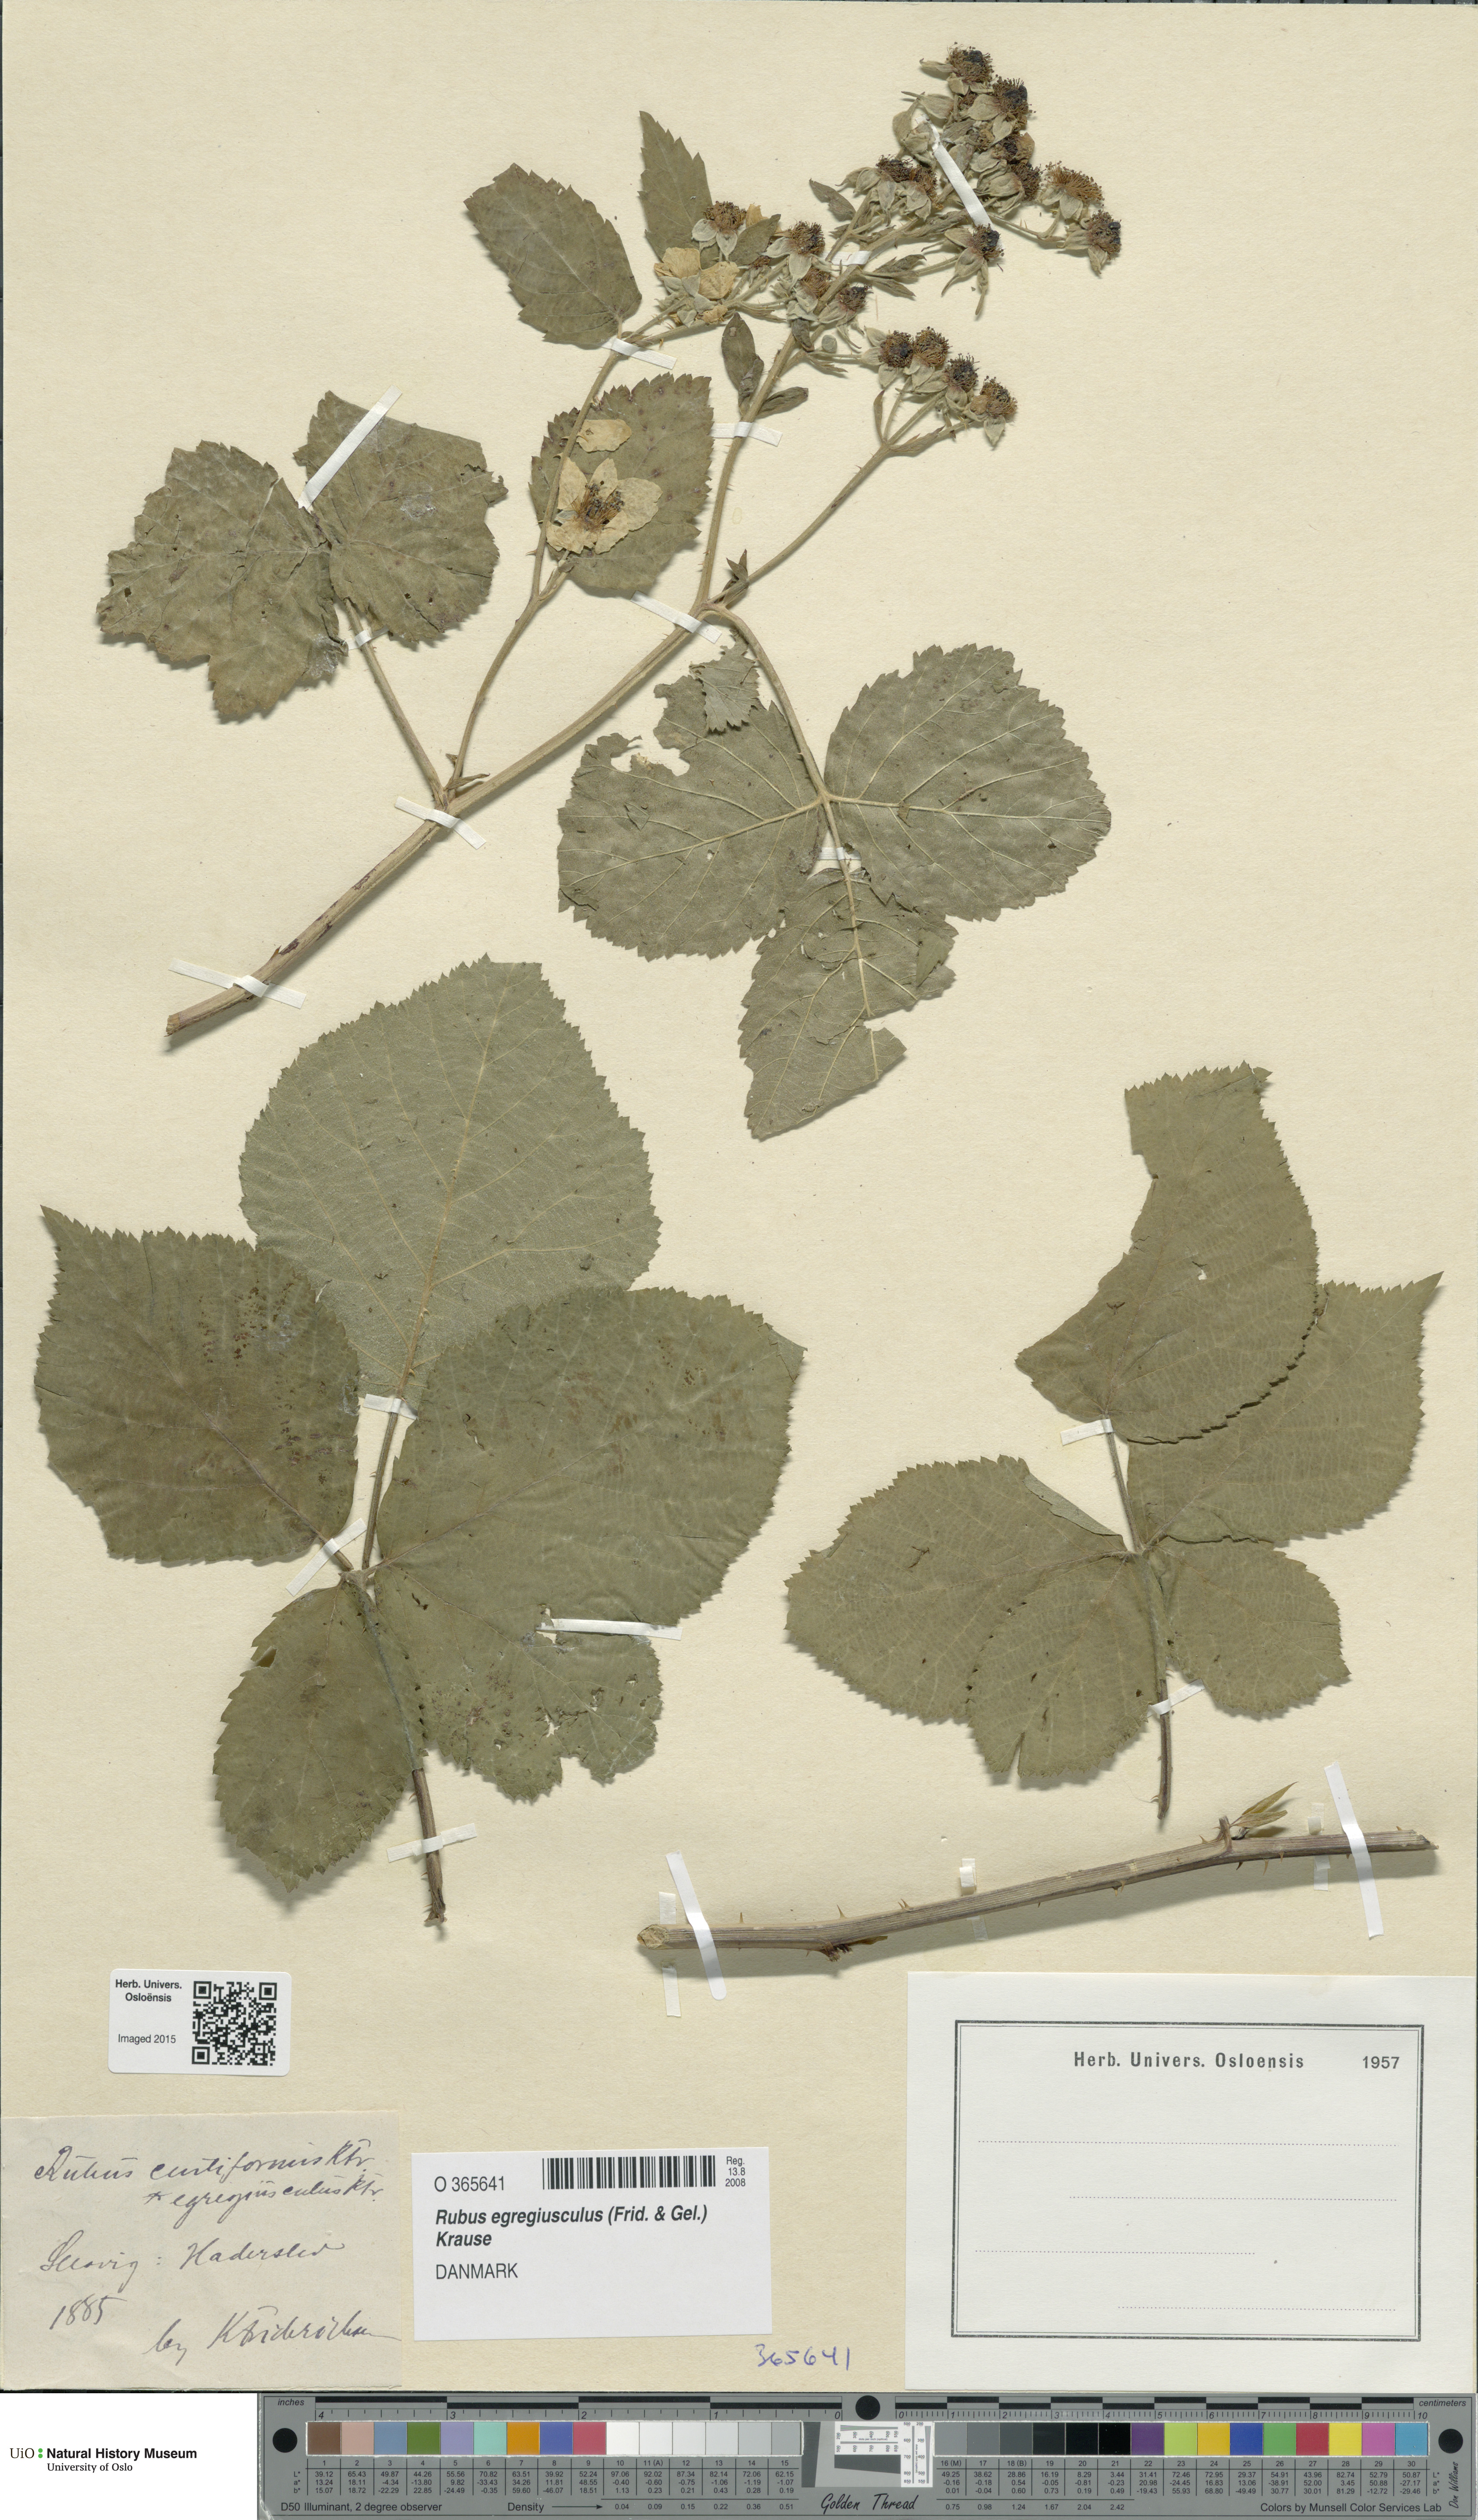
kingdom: Plantae
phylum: Tracheophyta
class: Magnoliopsida
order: Rosales
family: Rosaceae
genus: Rubus
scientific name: Rubus egregiusculus
